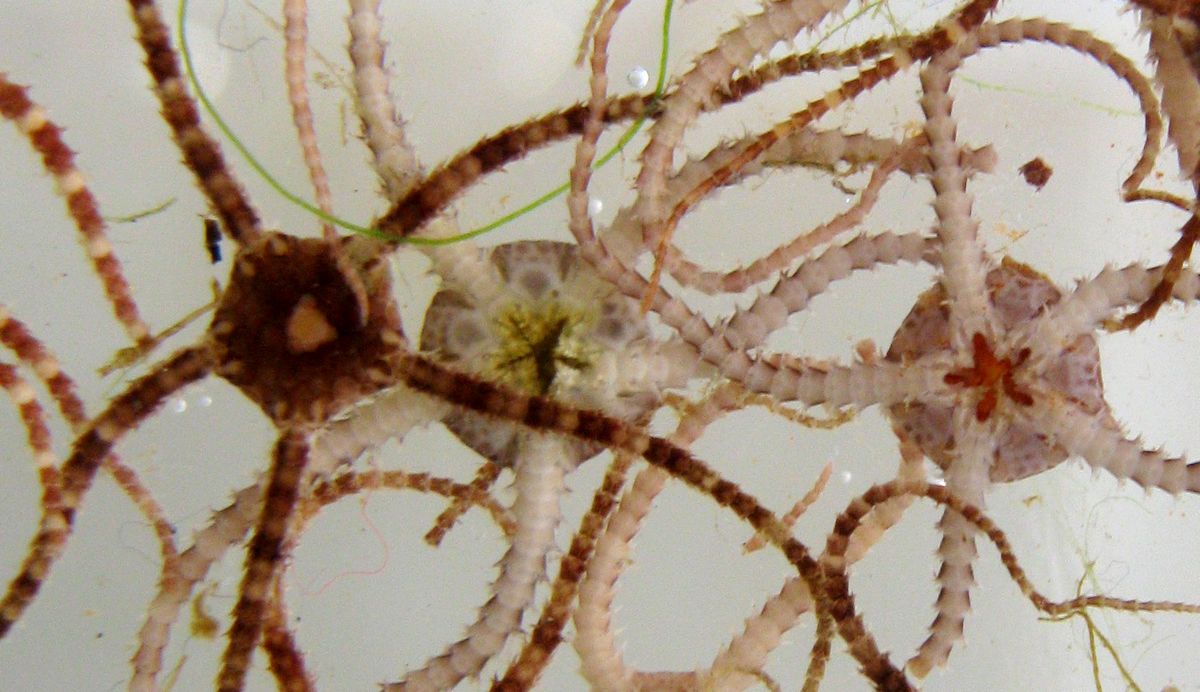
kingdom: Animalia
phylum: Echinodermata
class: Ophiuroidea
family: Ophiuridae
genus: Ophiura
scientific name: Ophiura robusta
